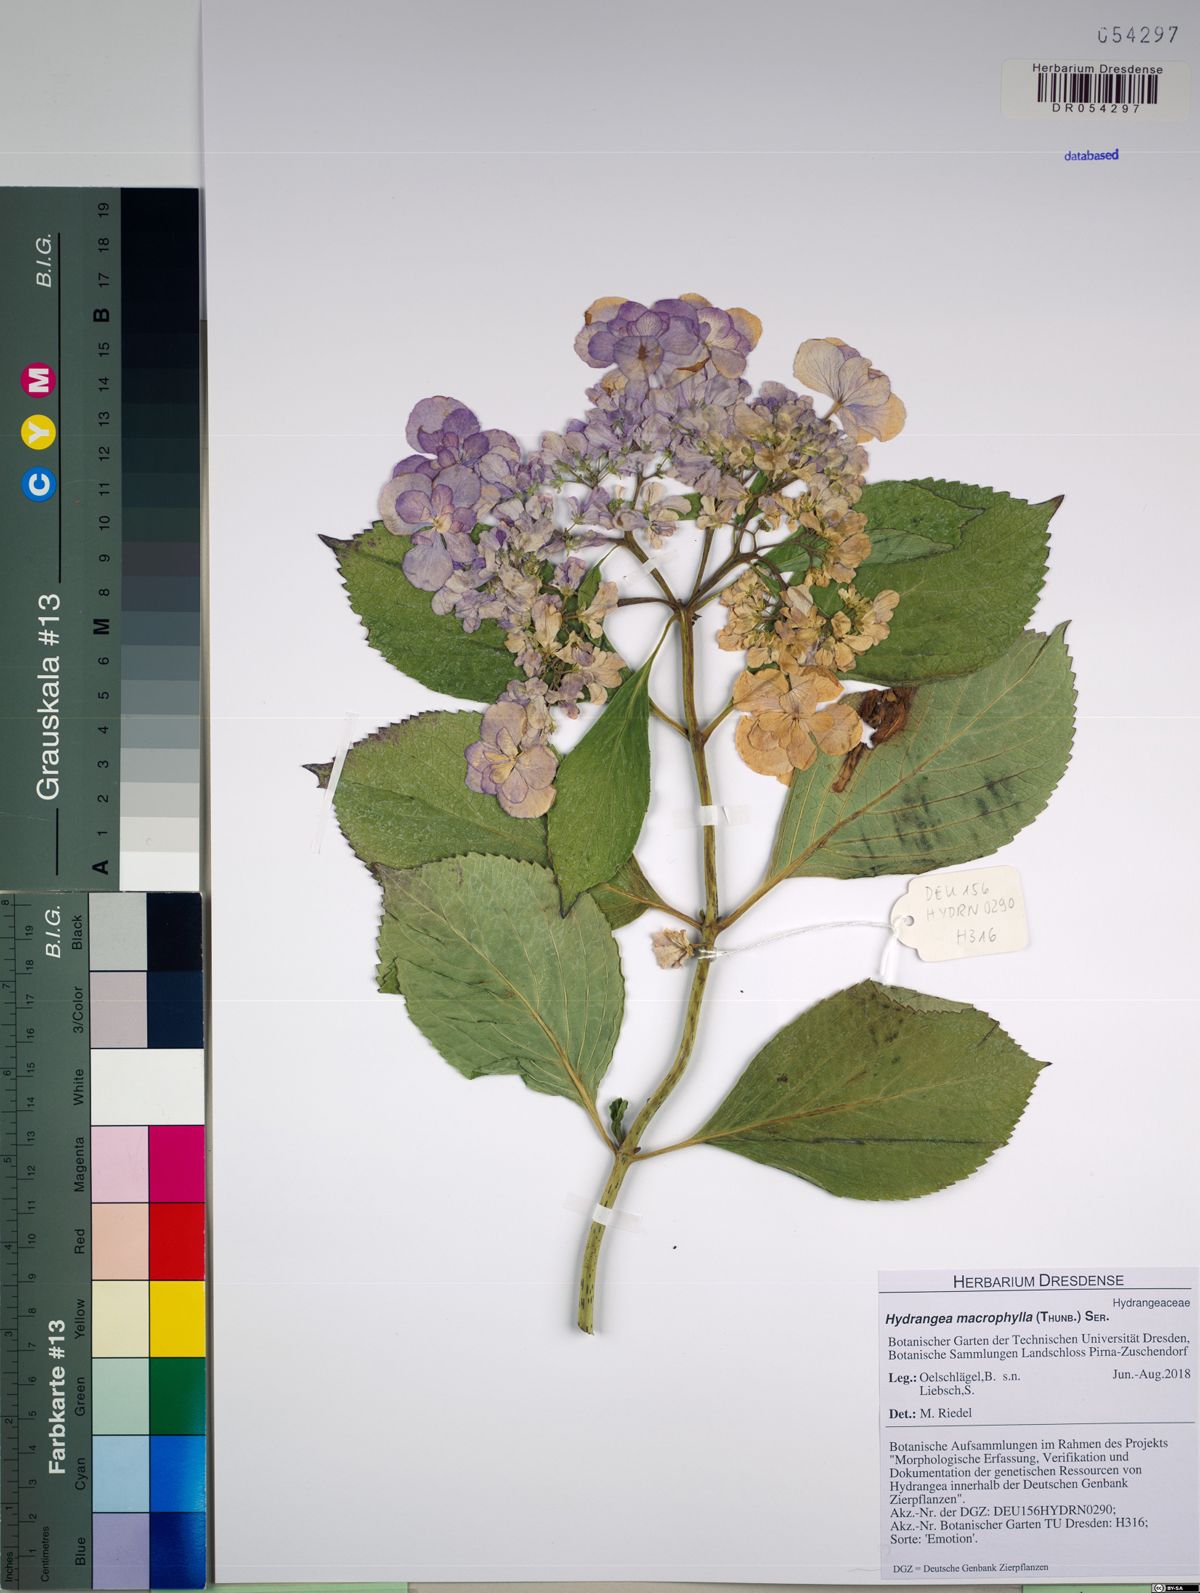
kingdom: Plantae
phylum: Tracheophyta
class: Magnoliopsida
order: Cornales
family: Hydrangeaceae
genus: Hydrangea
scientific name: Hydrangea macrophylla
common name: Hydrangea
